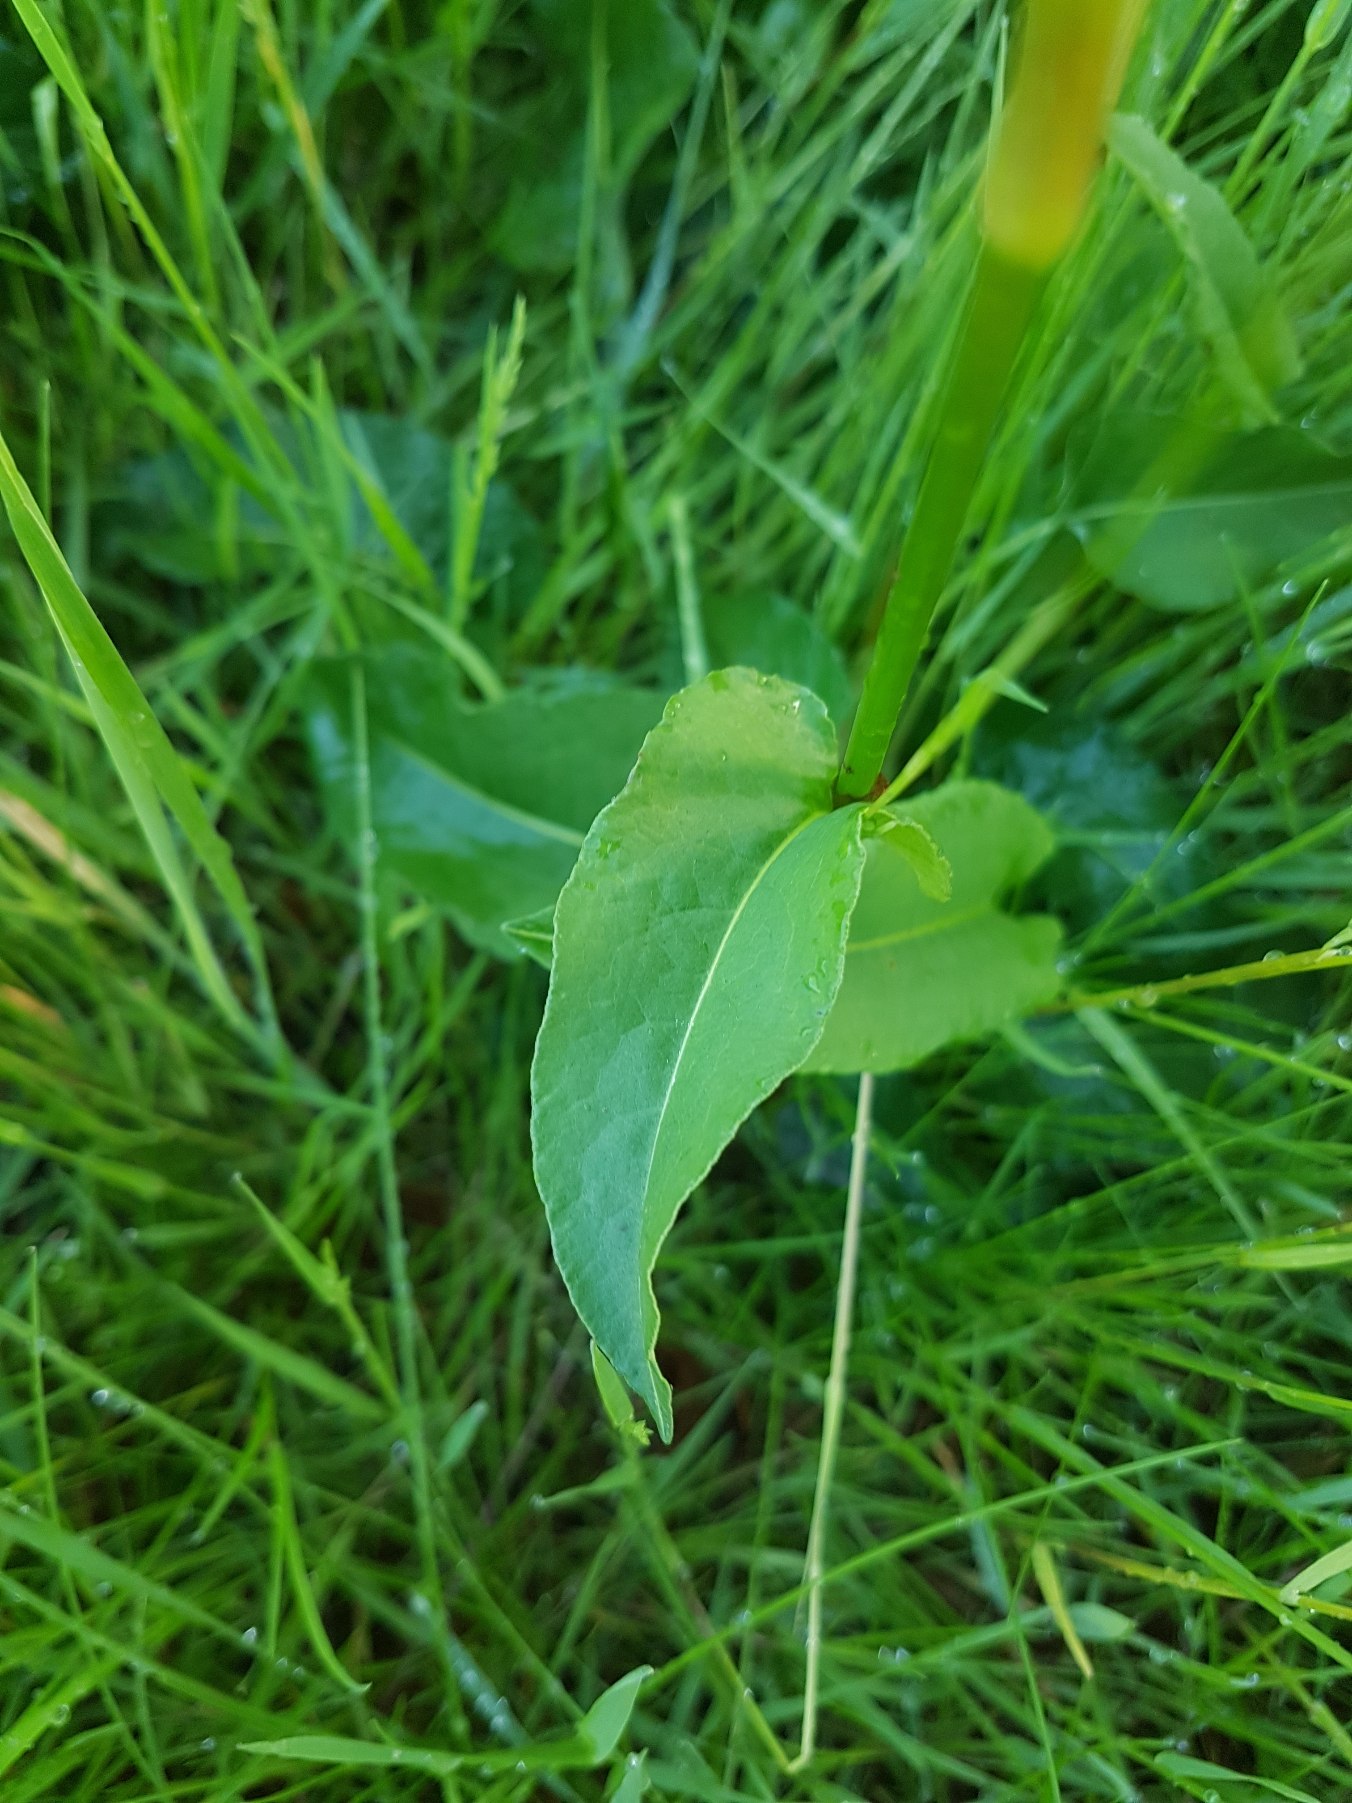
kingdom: Plantae
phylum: Tracheophyta
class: Magnoliopsida
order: Caryophyllales
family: Polygonaceae
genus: Bistorta
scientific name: Bistorta officinalis
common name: Slangeurt
